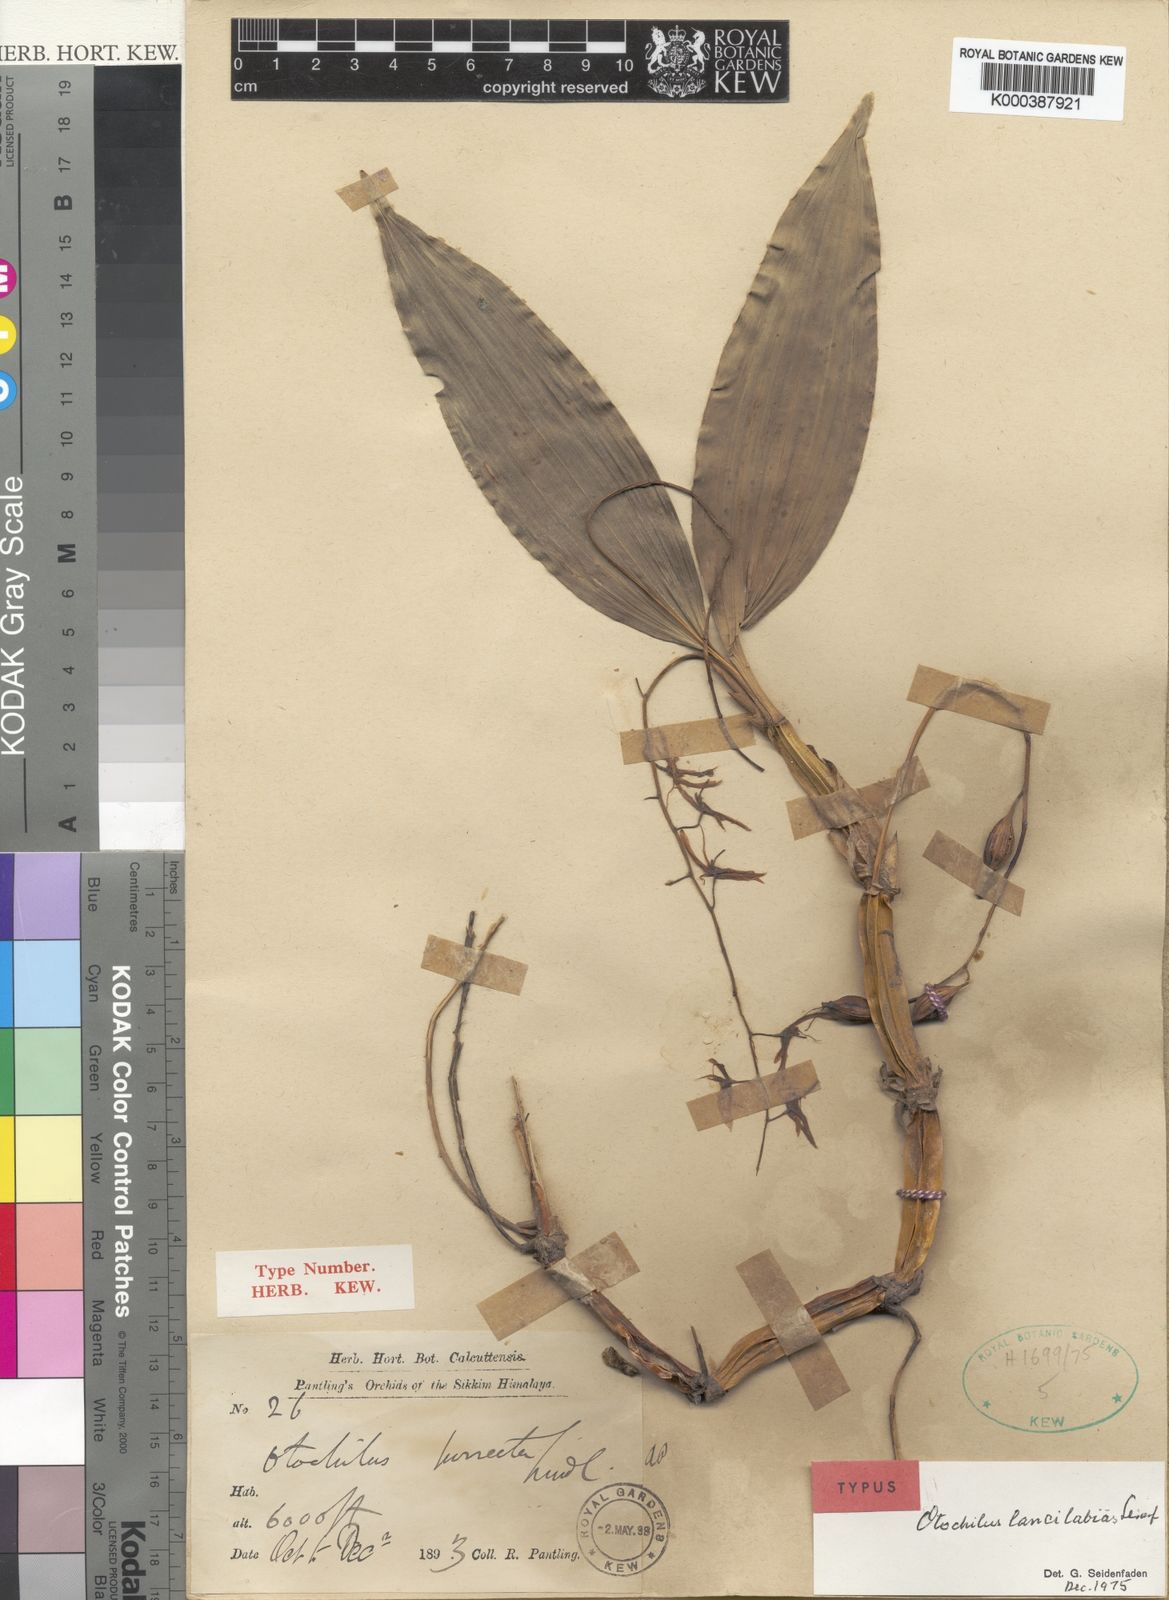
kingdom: Plantae
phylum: Tracheophyta
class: Liliopsida
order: Asparagales
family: Orchidaceae
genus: Coelogyne
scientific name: Coelogyne lancilabia
